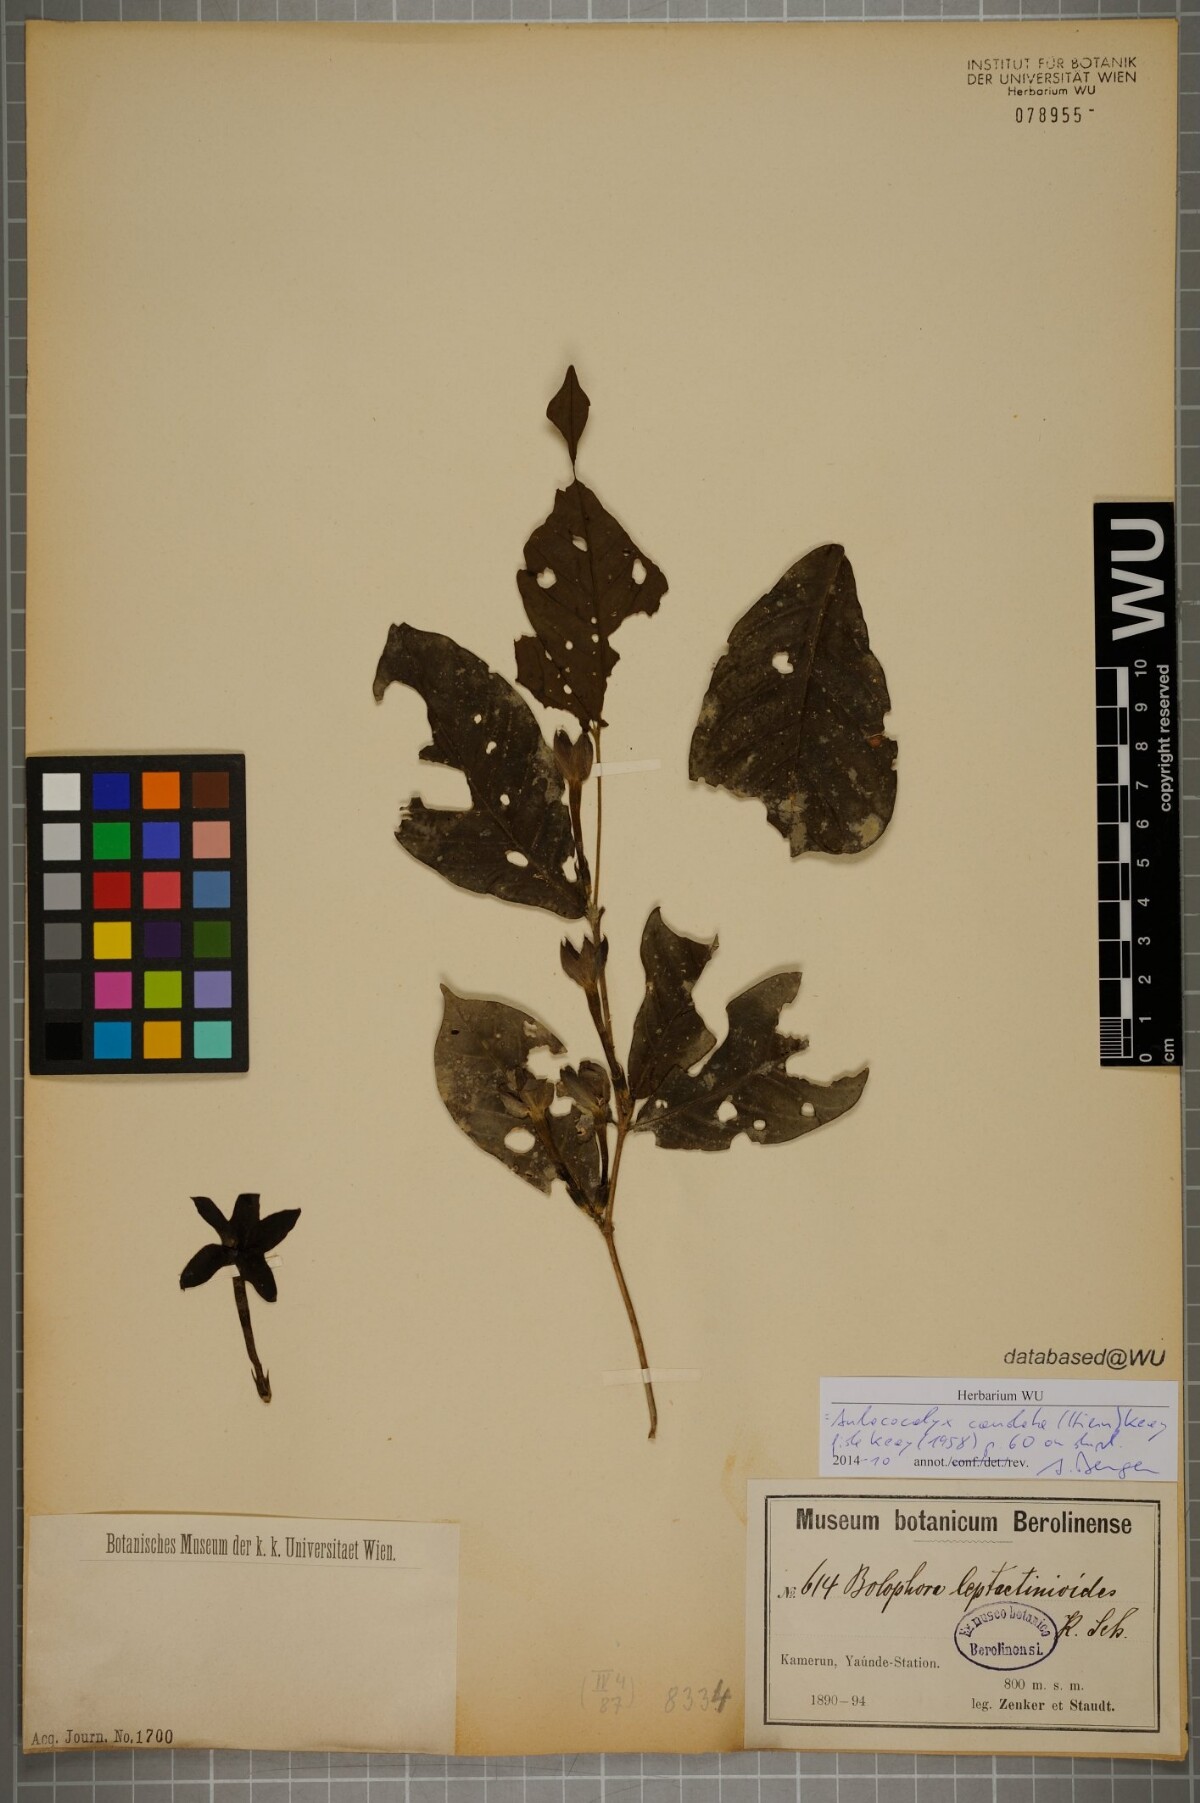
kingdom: Plantae
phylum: Tracheophyta
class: Magnoliopsida
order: Gentianales
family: Rubiaceae
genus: Aulacocalyx
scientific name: Aulacocalyx caudata
